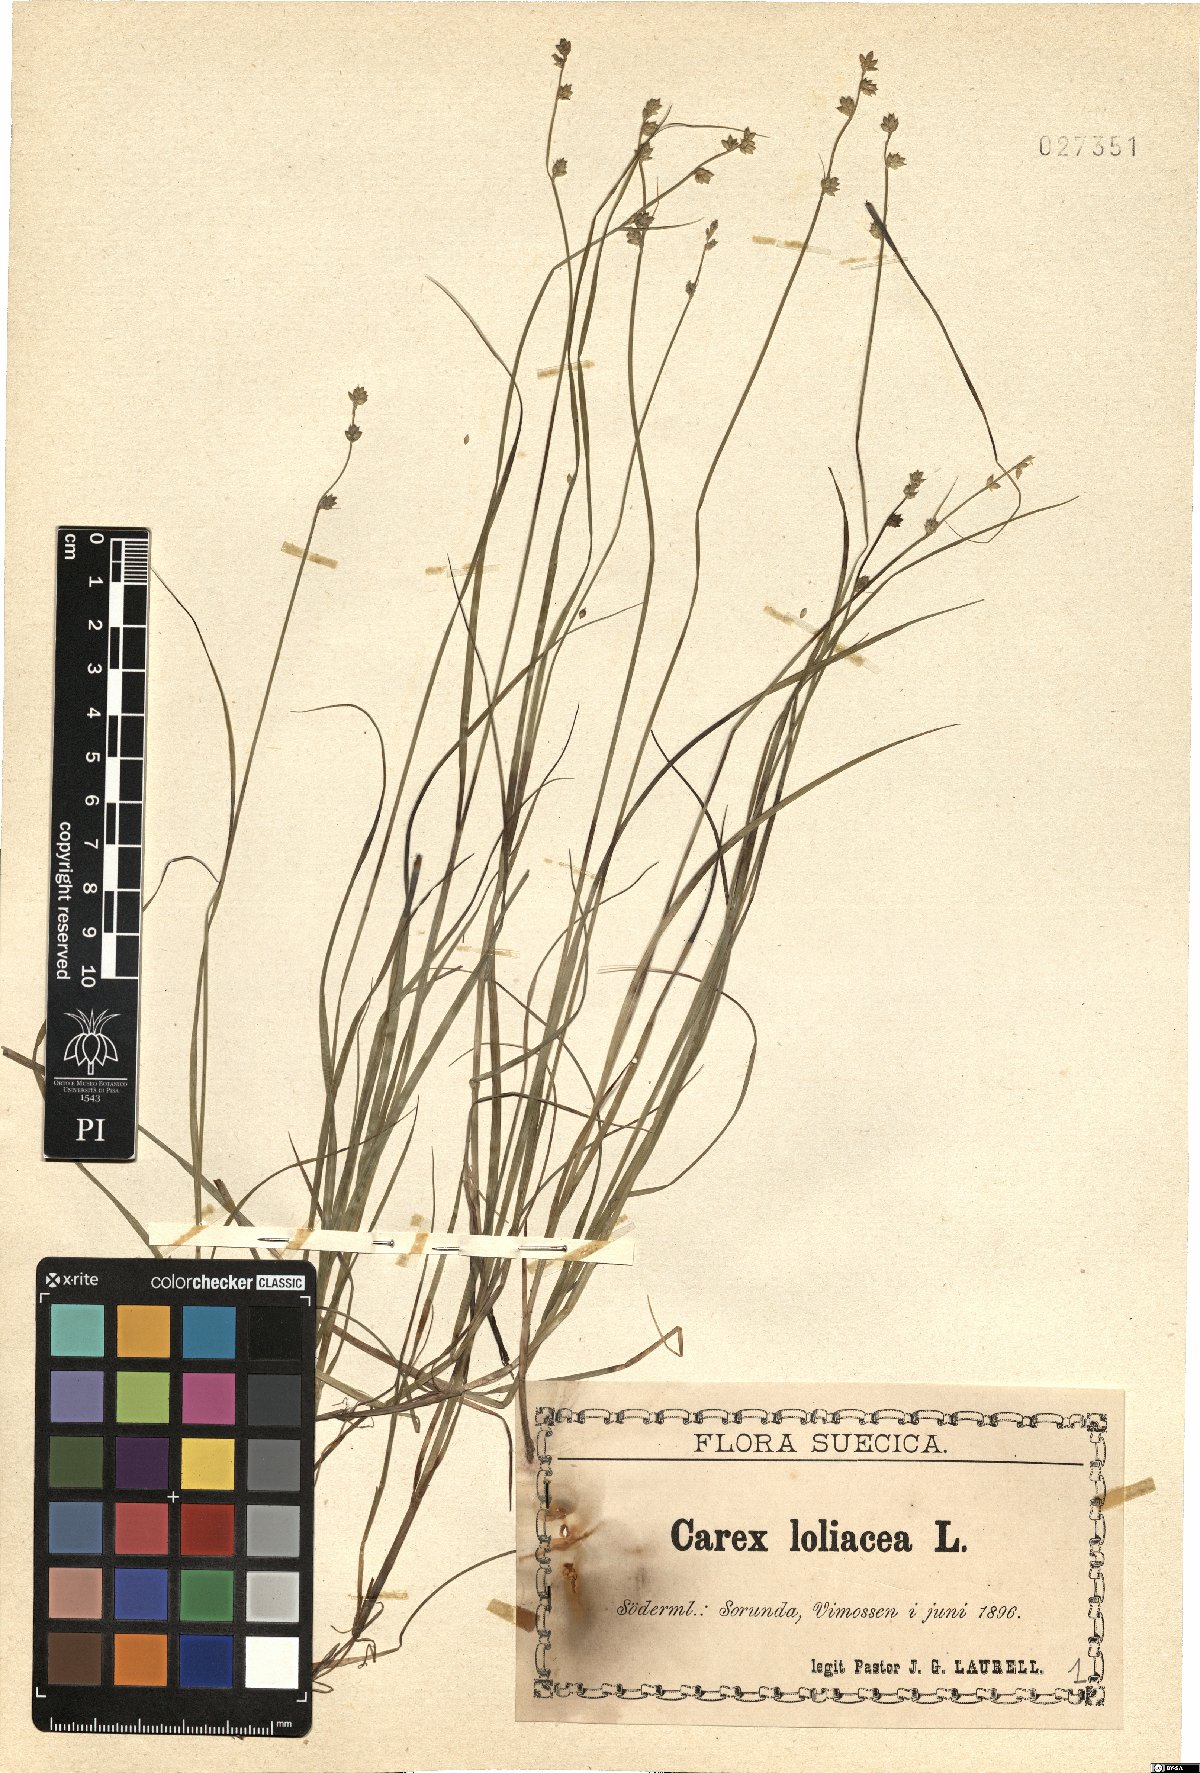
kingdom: Plantae
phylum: Tracheophyta
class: Liliopsida
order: Poales
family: Cyperaceae
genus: Carex
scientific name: Carex loliacea
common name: Ryegrass sedge
